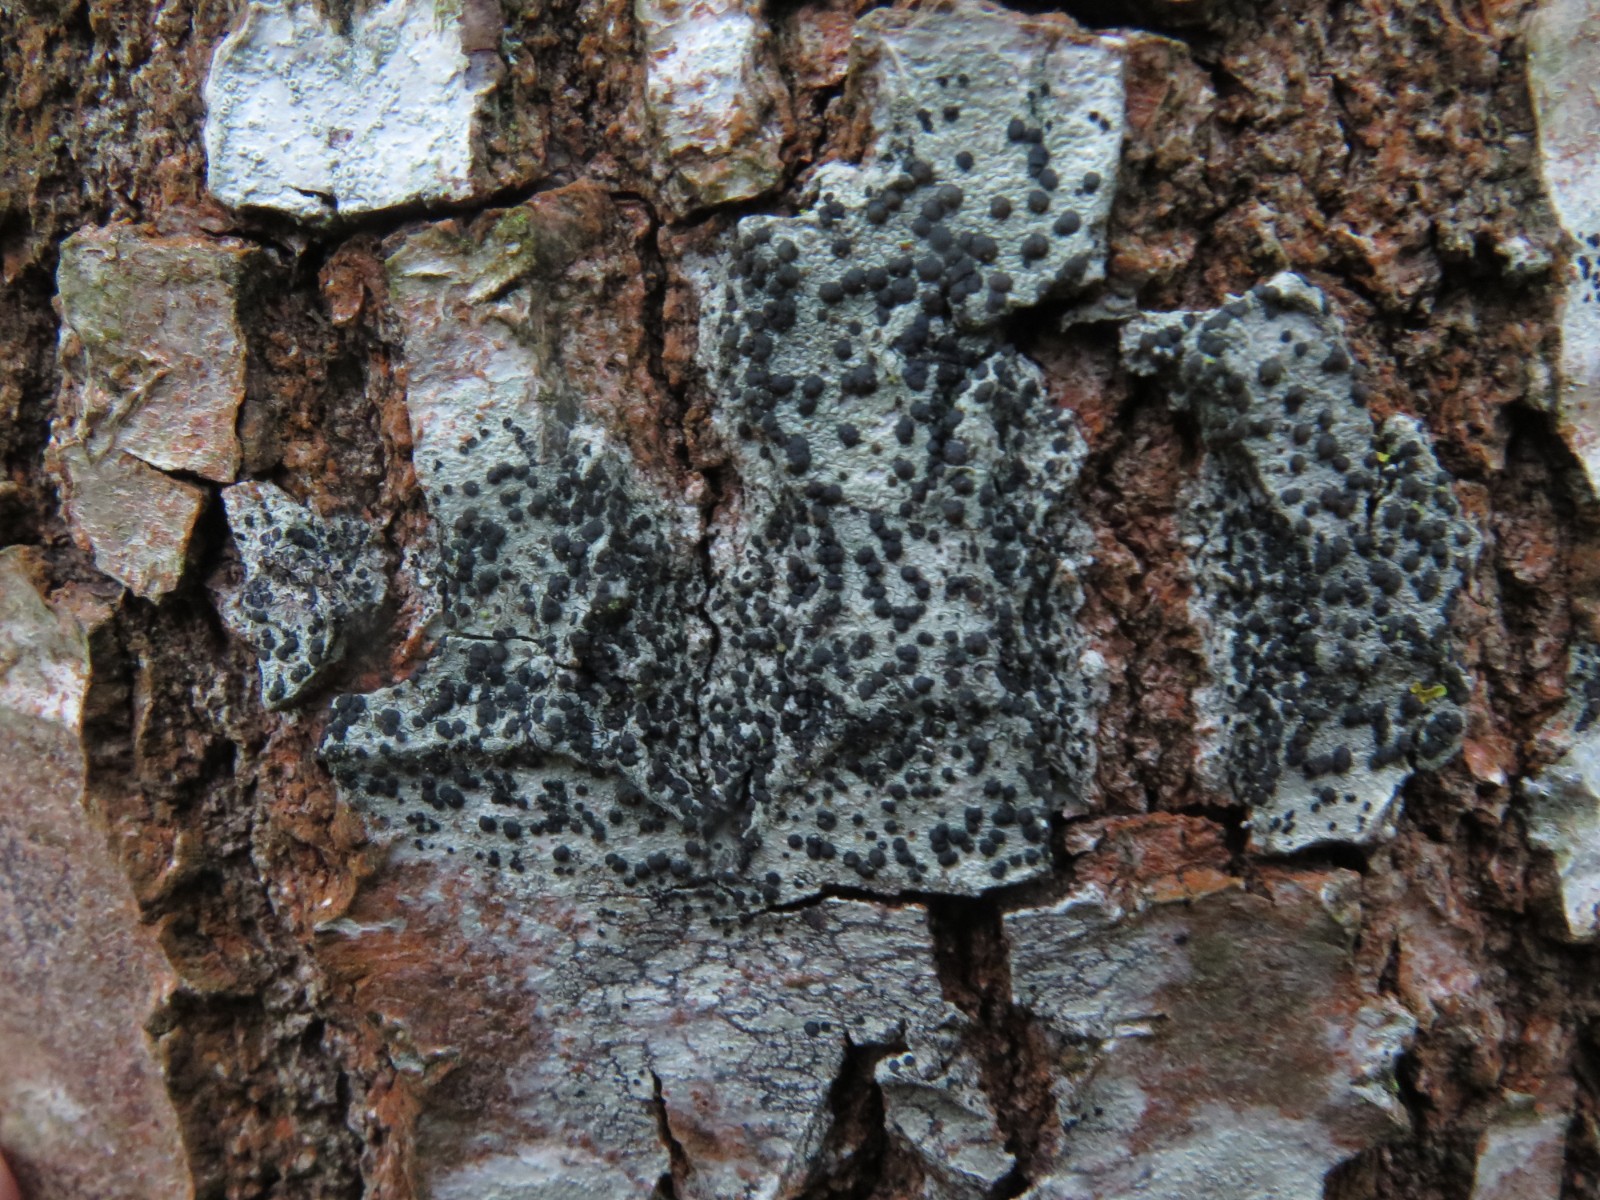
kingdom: Fungi
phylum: Ascomycota
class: Lecanoromycetes
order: Lecanorales
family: Lecanoraceae
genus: Lecidella
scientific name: Lecidella elaeochroma
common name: grågrøn skivelav
